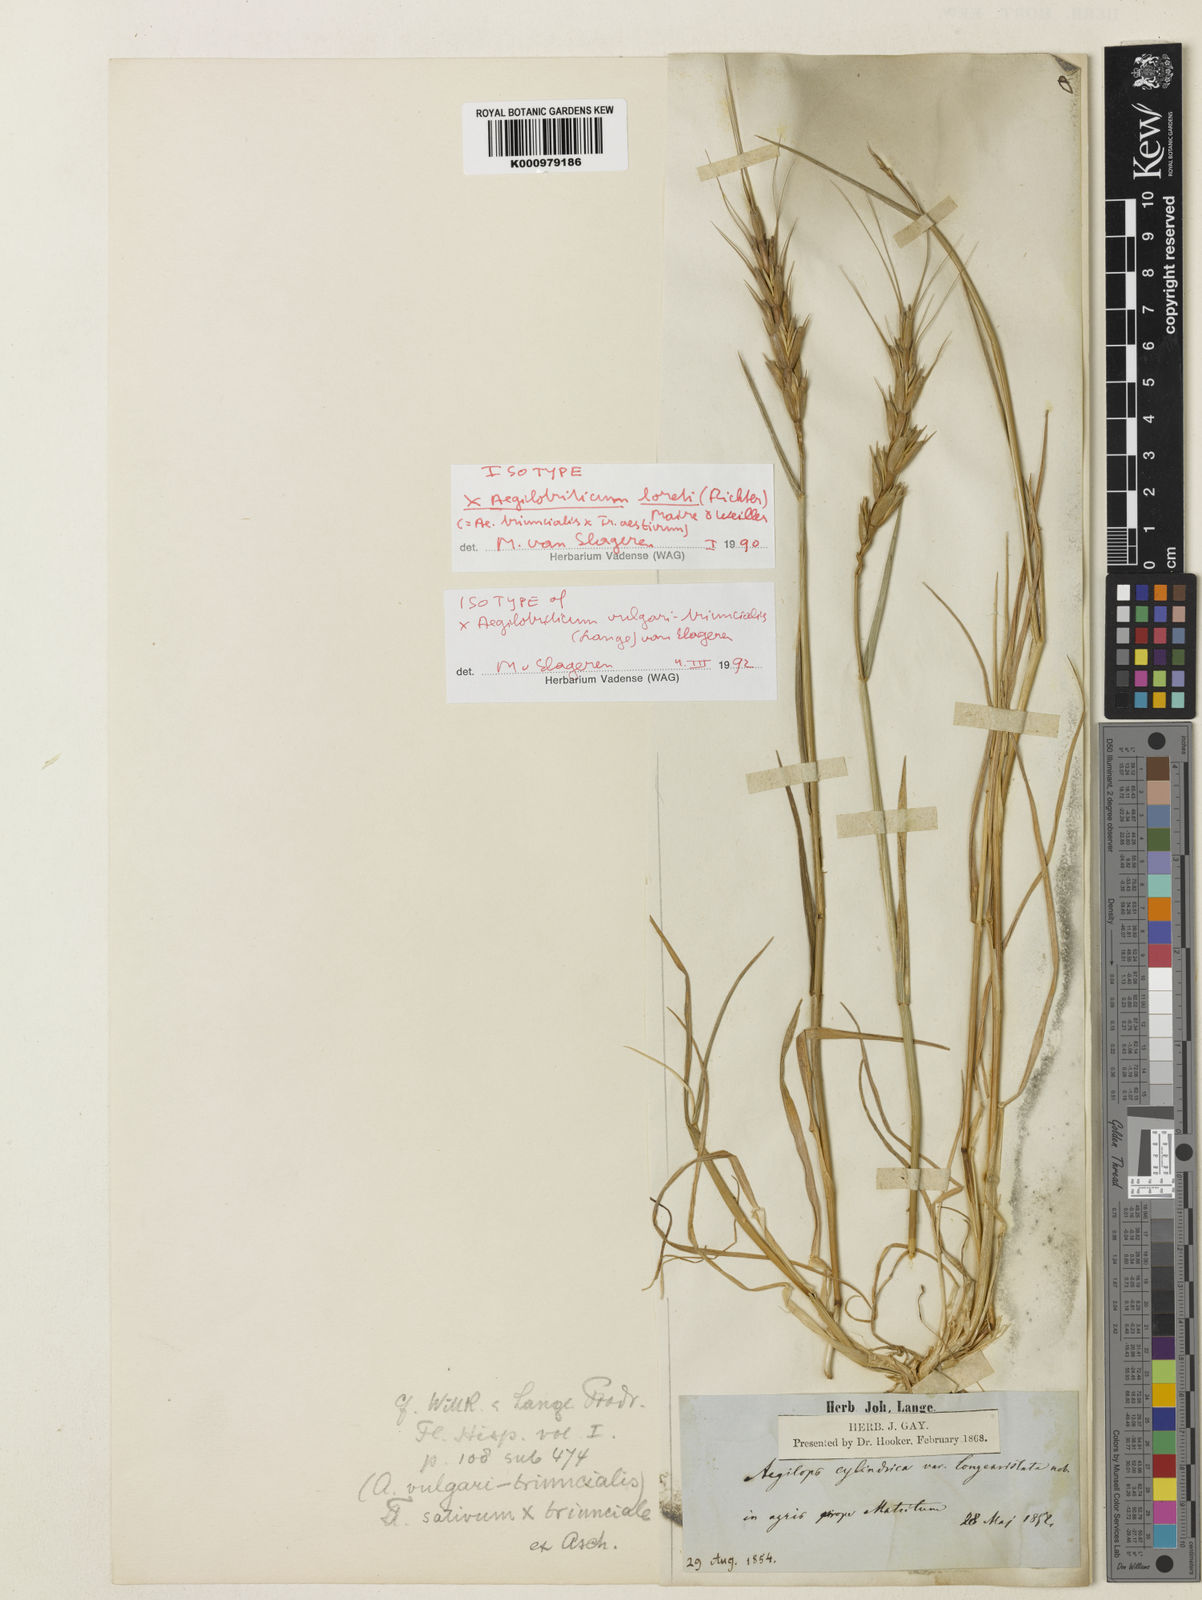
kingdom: Plantae
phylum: Tracheophyta
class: Liliopsida
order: Poales
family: Poaceae
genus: Aegilops
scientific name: Aegilops
